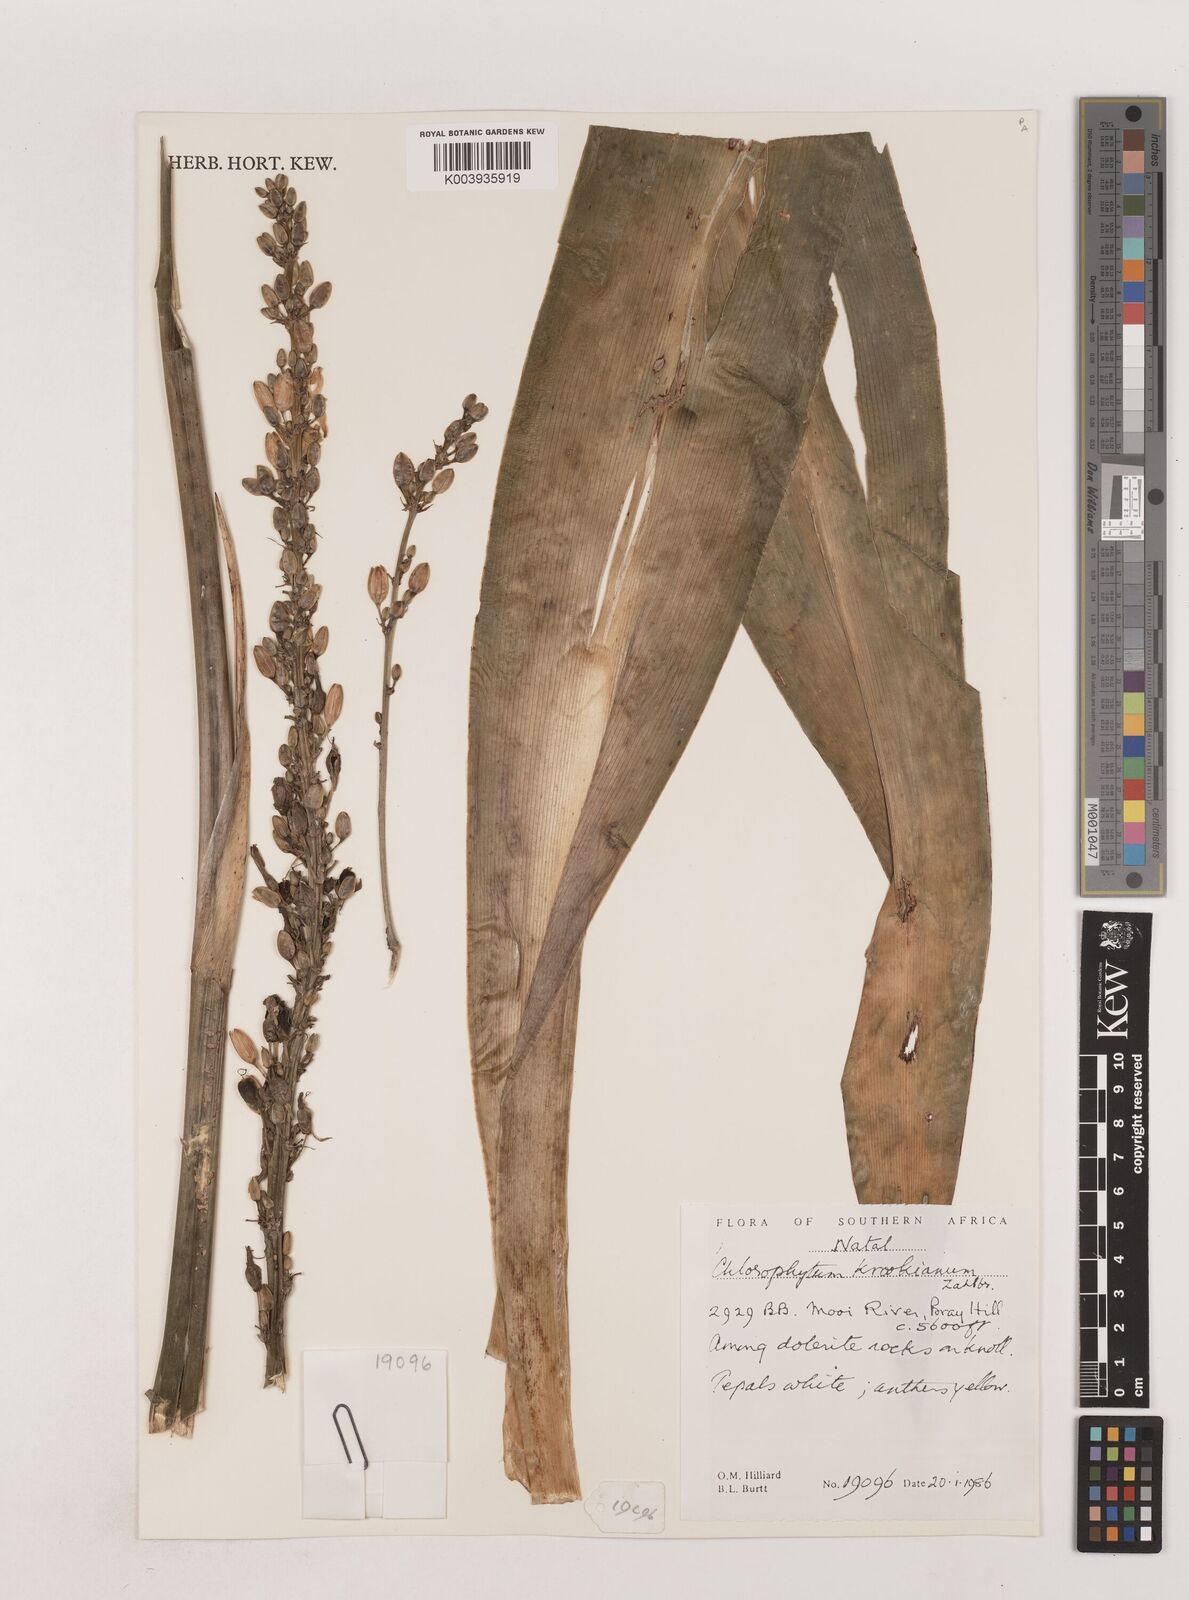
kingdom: Plantae
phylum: Tracheophyta
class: Liliopsida
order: Asparagales
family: Asparagaceae
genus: Chlorophytum
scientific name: Chlorophytum krookianum
